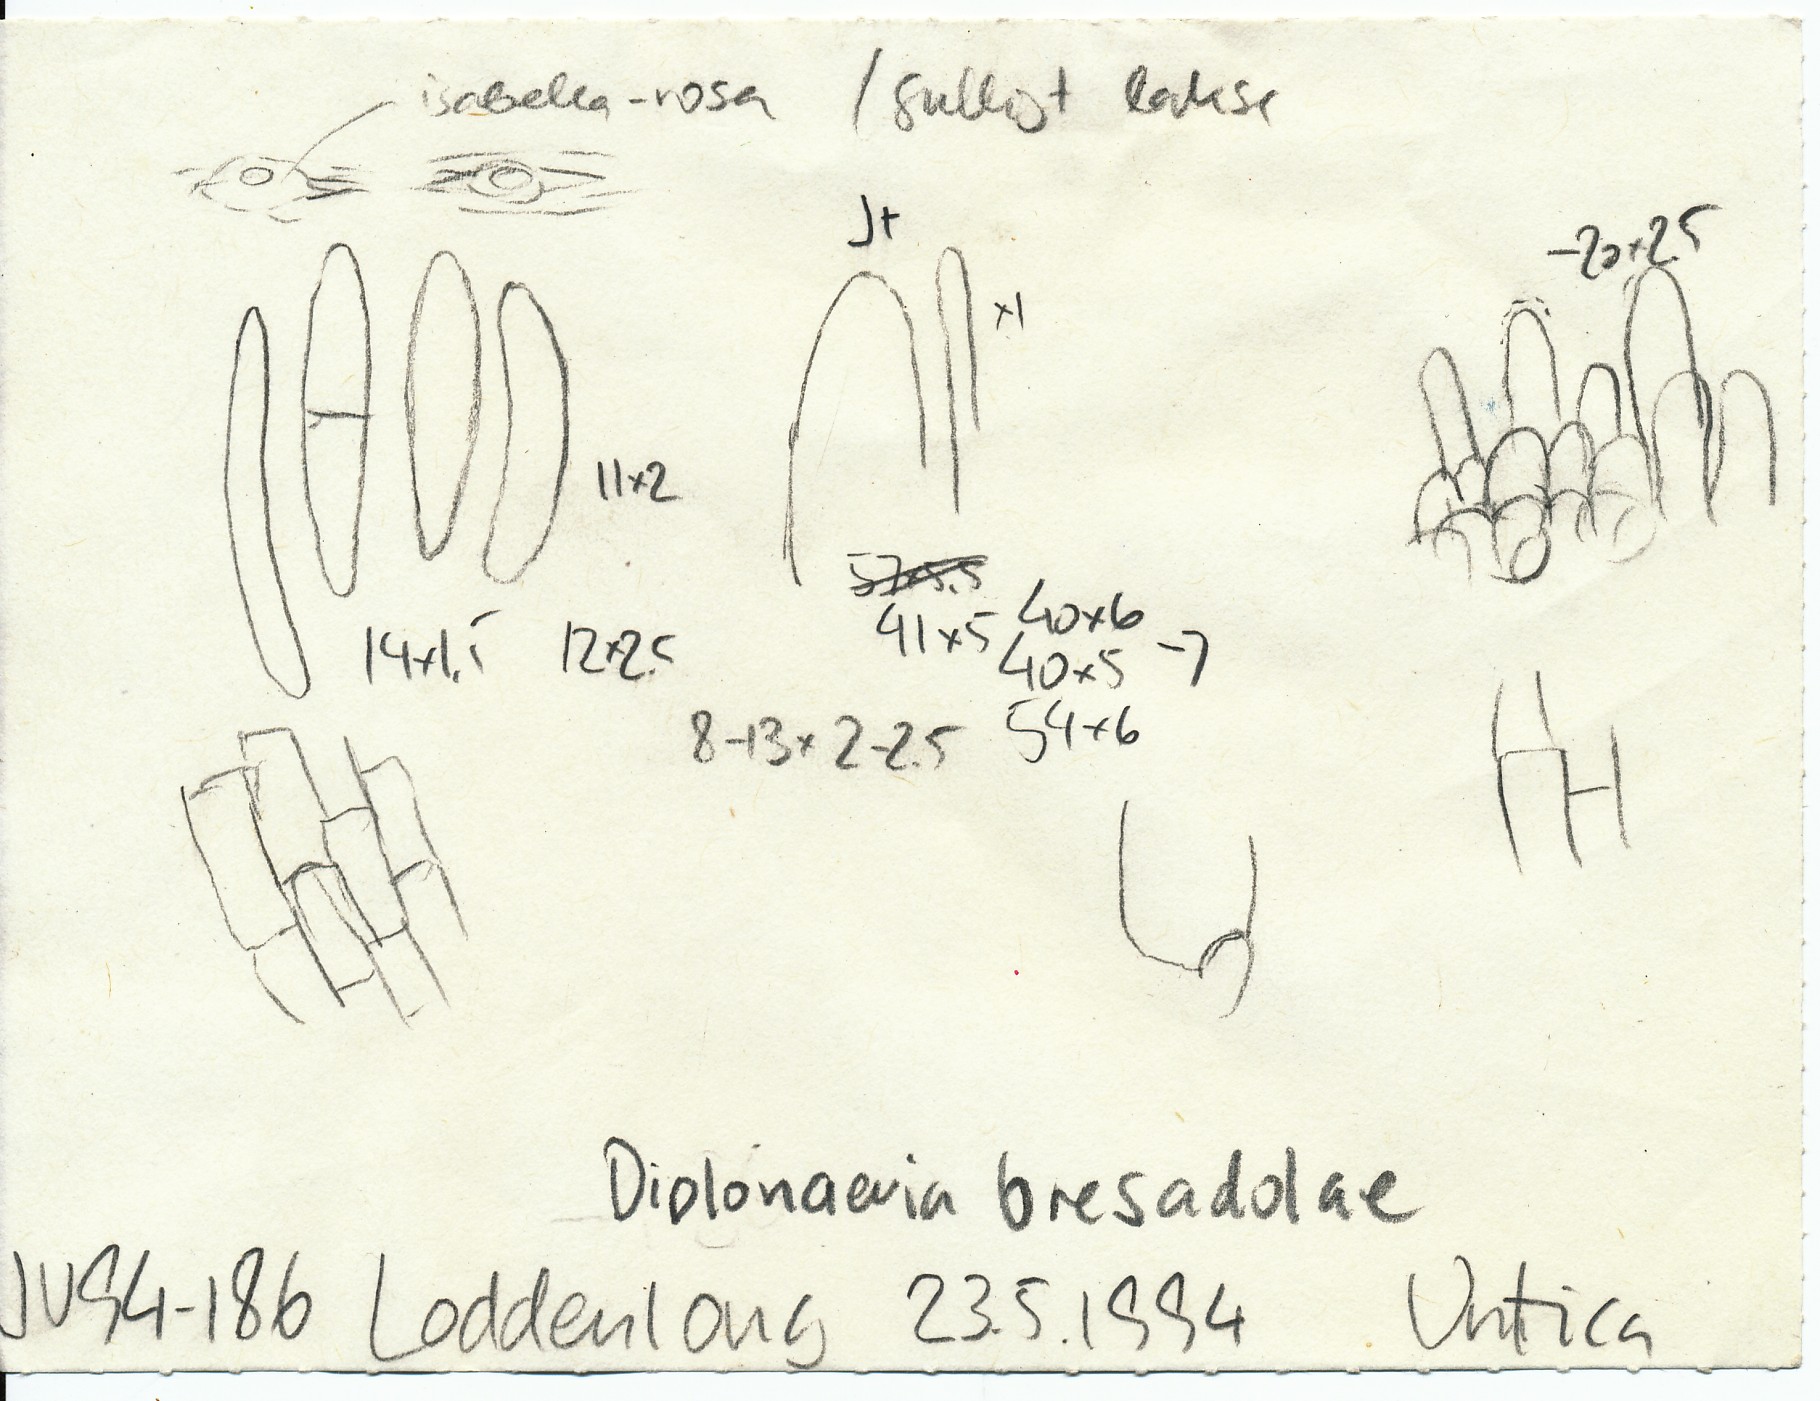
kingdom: Fungi
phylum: Ascomycota
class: Leotiomycetes
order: Helotiales
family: Calloriaceae
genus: Diplonaevia
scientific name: Diplonaevia bresadolae
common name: rosa orangeskive
